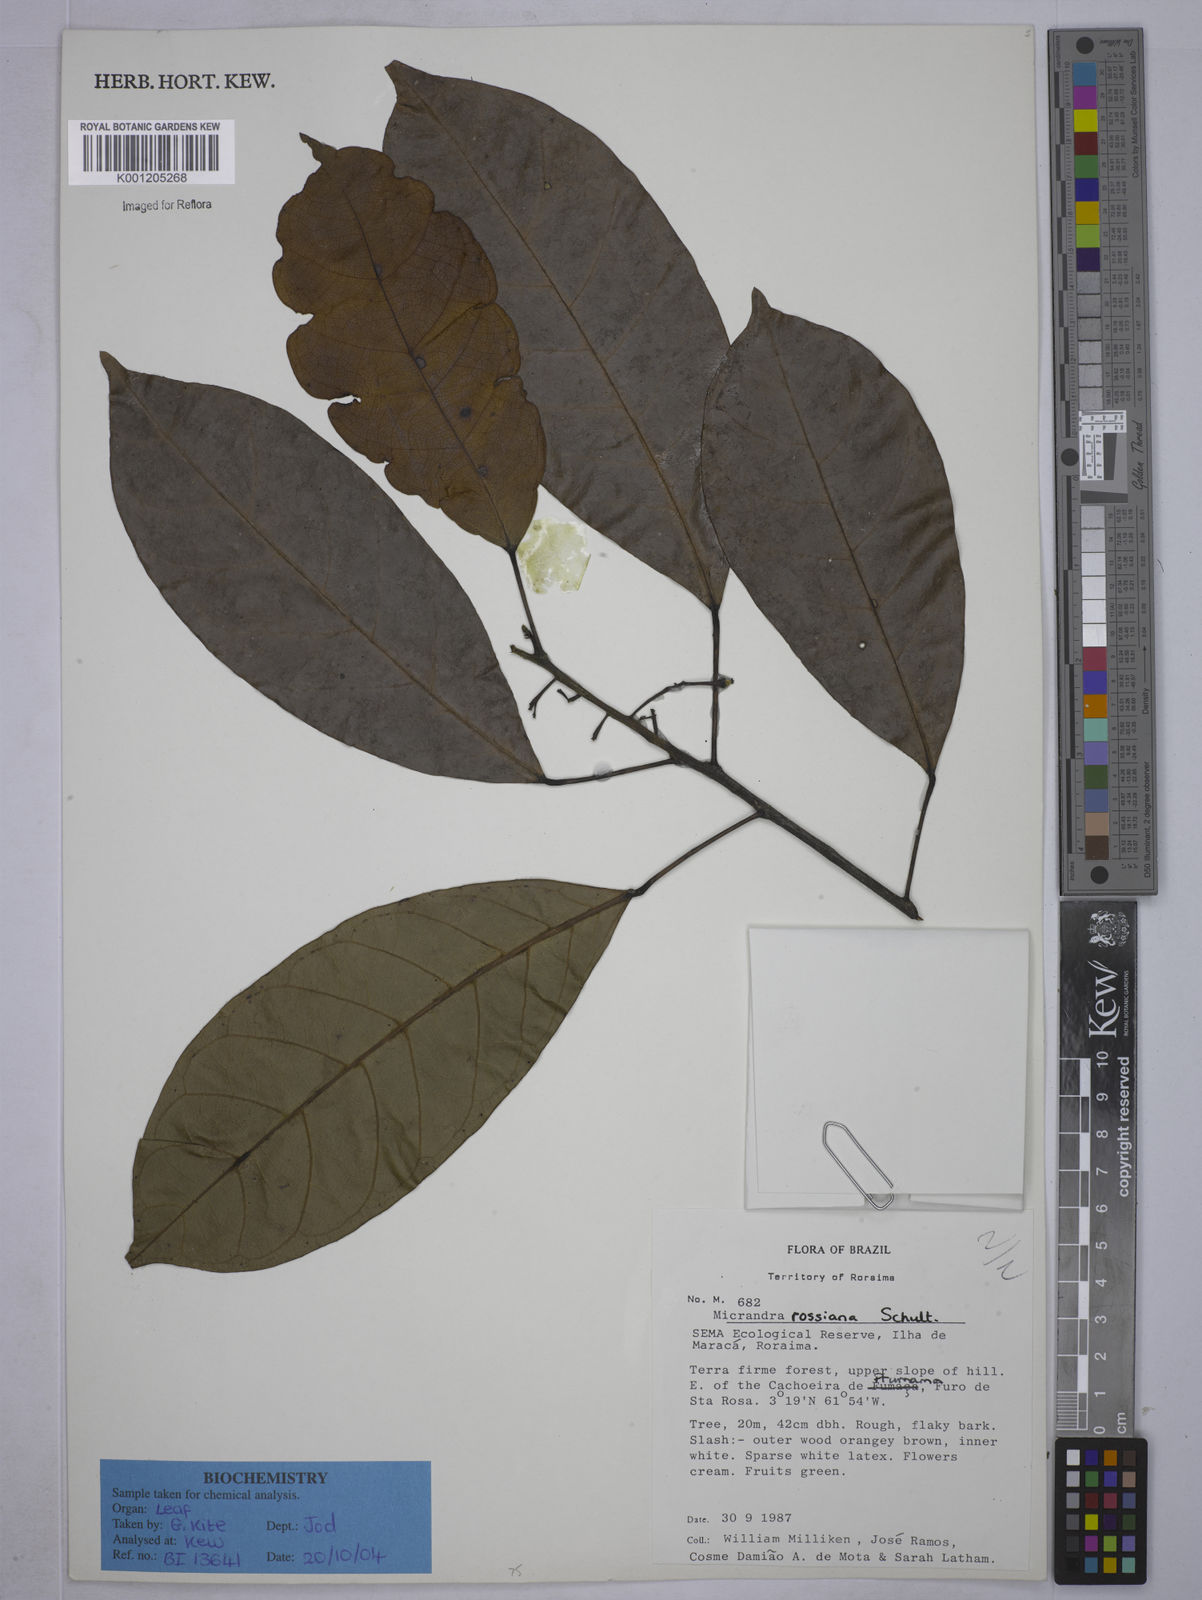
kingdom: Plantae
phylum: Tracheophyta
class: Magnoliopsida
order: Malpighiales
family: Euphorbiaceae
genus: Micrandra
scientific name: Micrandra rossiana
